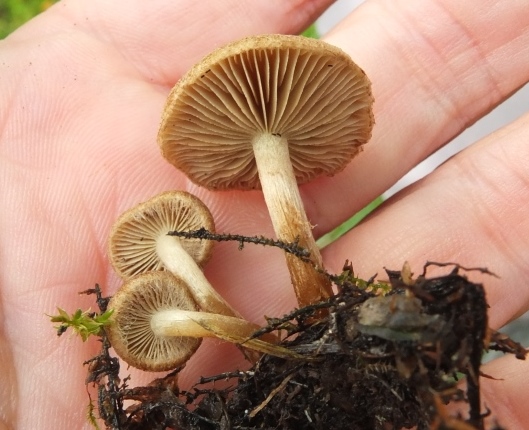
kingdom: Fungi
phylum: Basidiomycota
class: Agaricomycetes
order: Agaricales
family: Inocybaceae
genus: Inocybe
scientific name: Inocybe dulcamara
